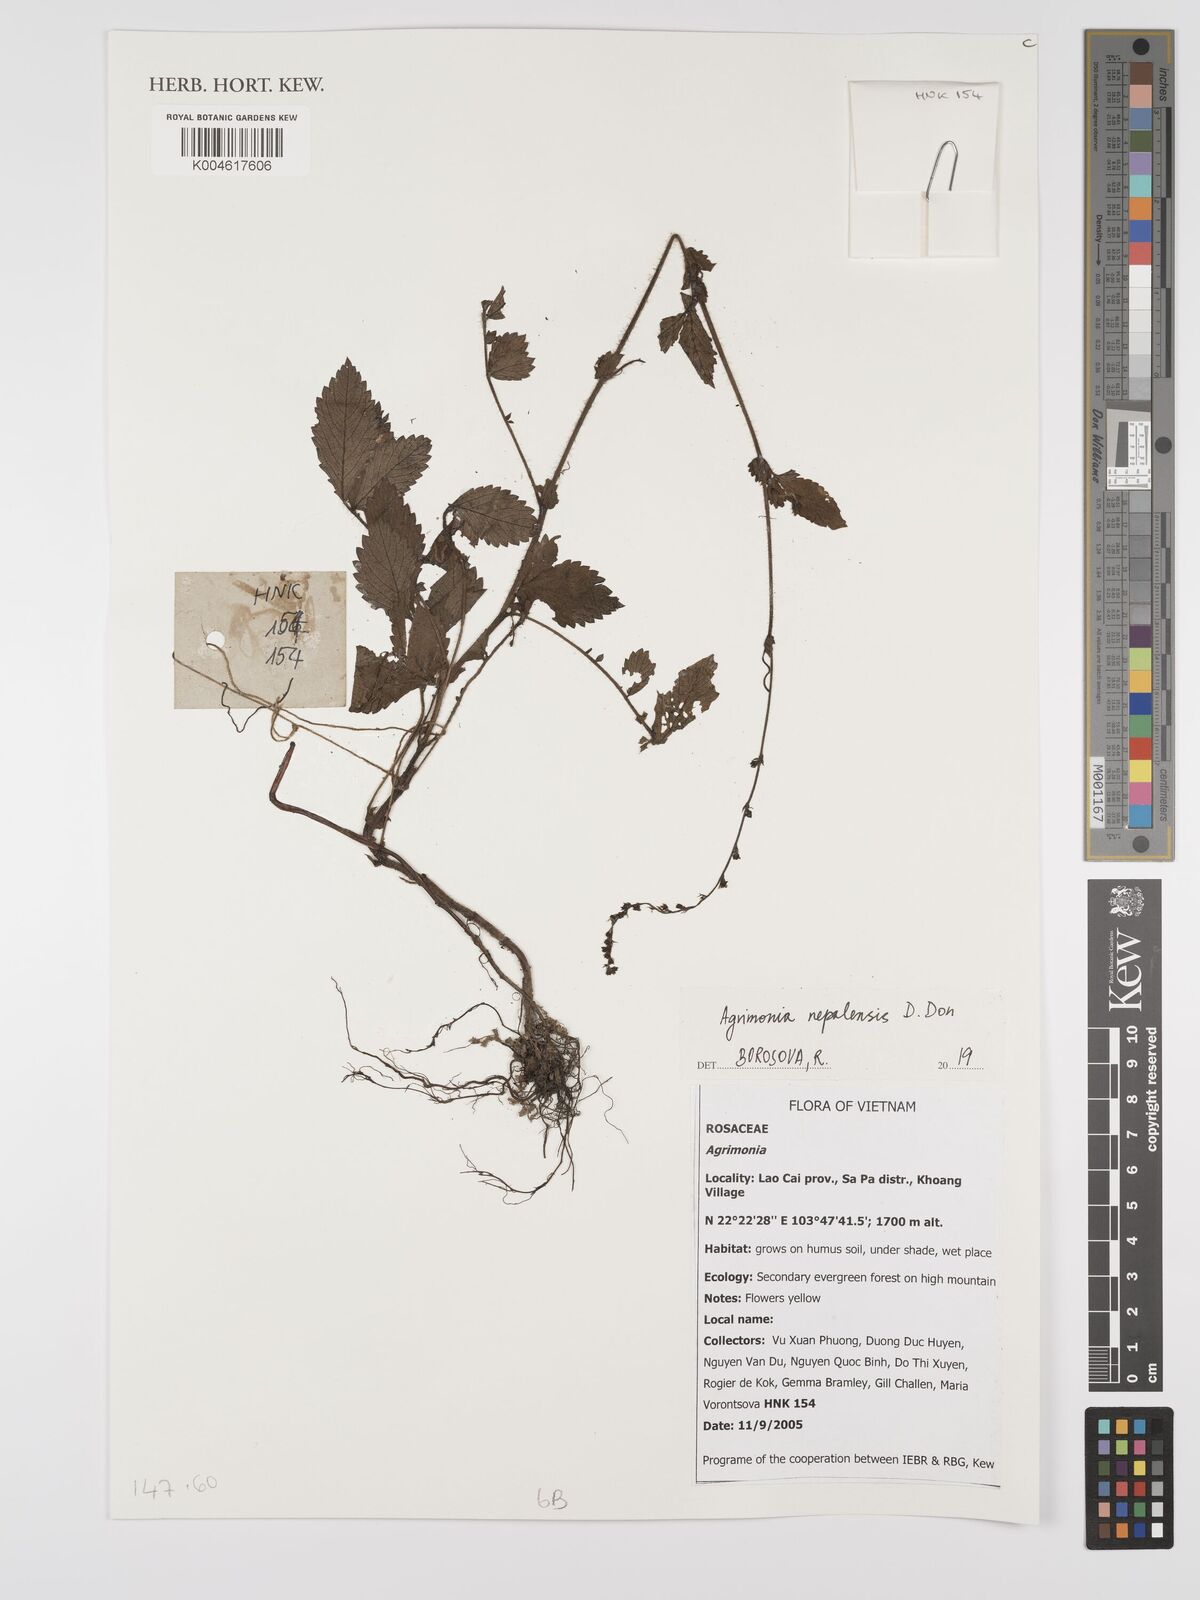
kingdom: Plantae
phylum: Tracheophyta
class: Magnoliopsida
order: Rosales
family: Rosaceae
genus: Agrimonia
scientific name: Agrimonia pilosa
